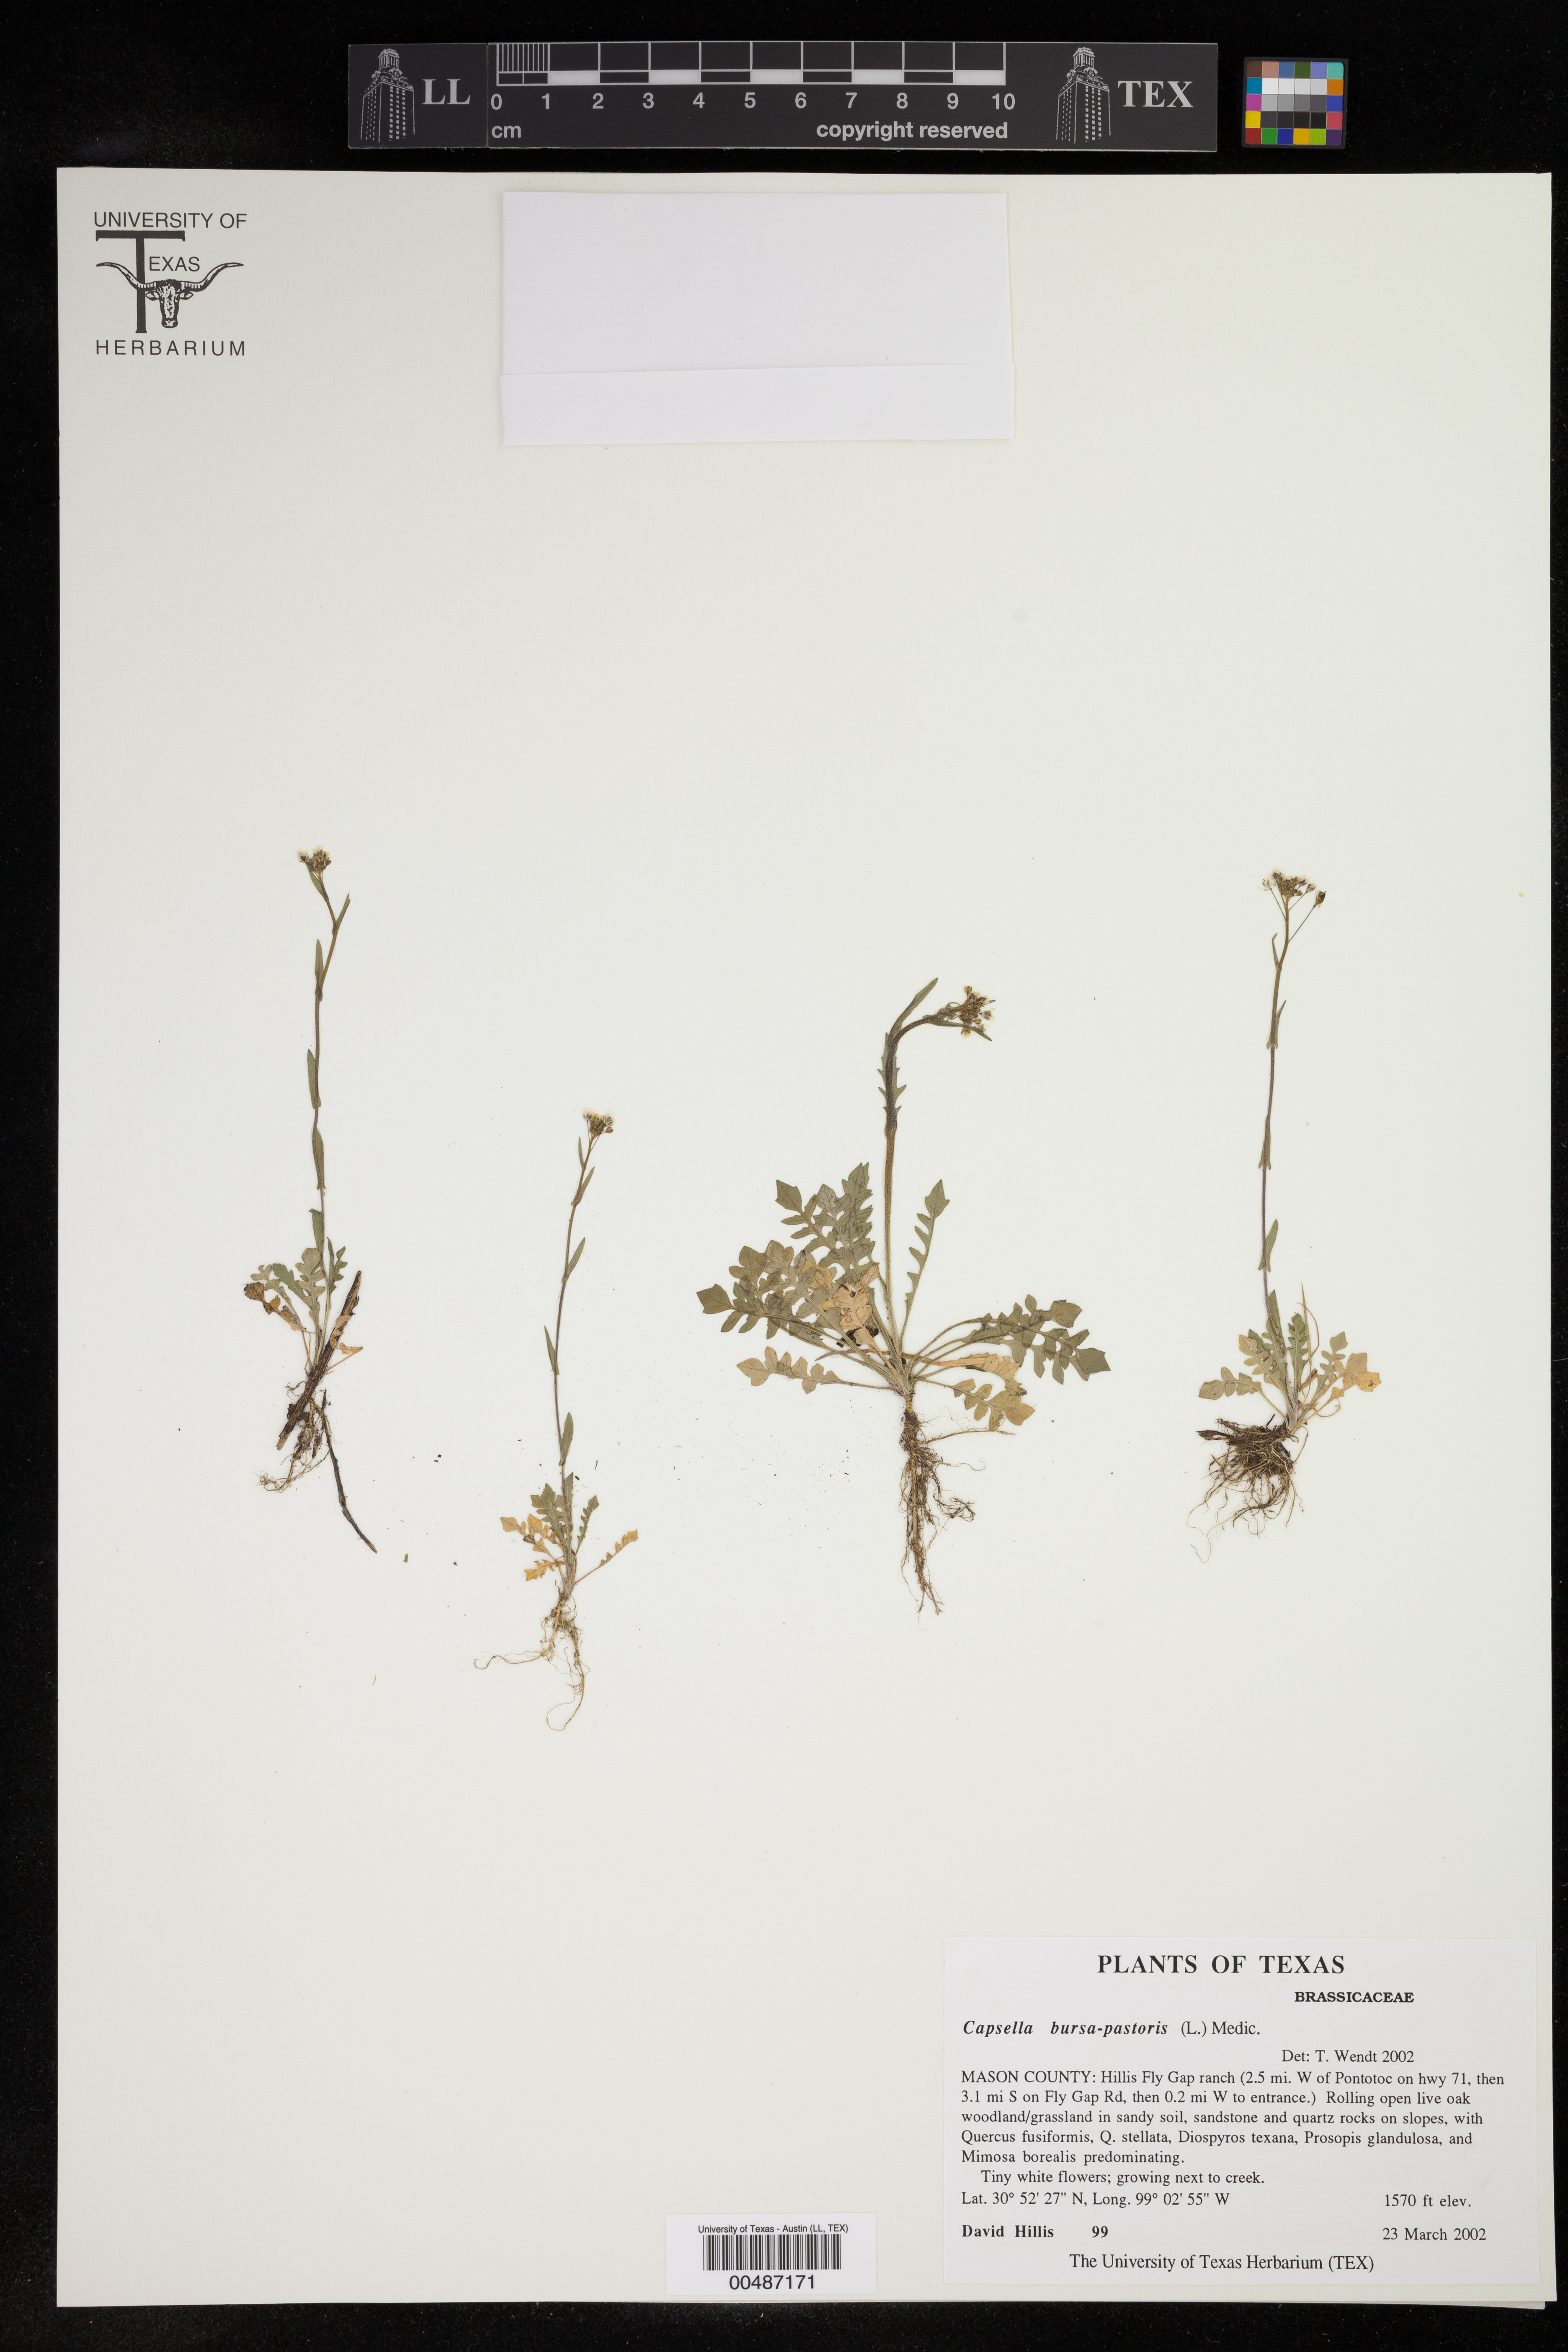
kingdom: Plantae
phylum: Tracheophyta
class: Magnoliopsida
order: Brassicales
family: Brassicaceae
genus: Capsella
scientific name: Capsella bursa-pastoris
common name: Shepherd's purse
